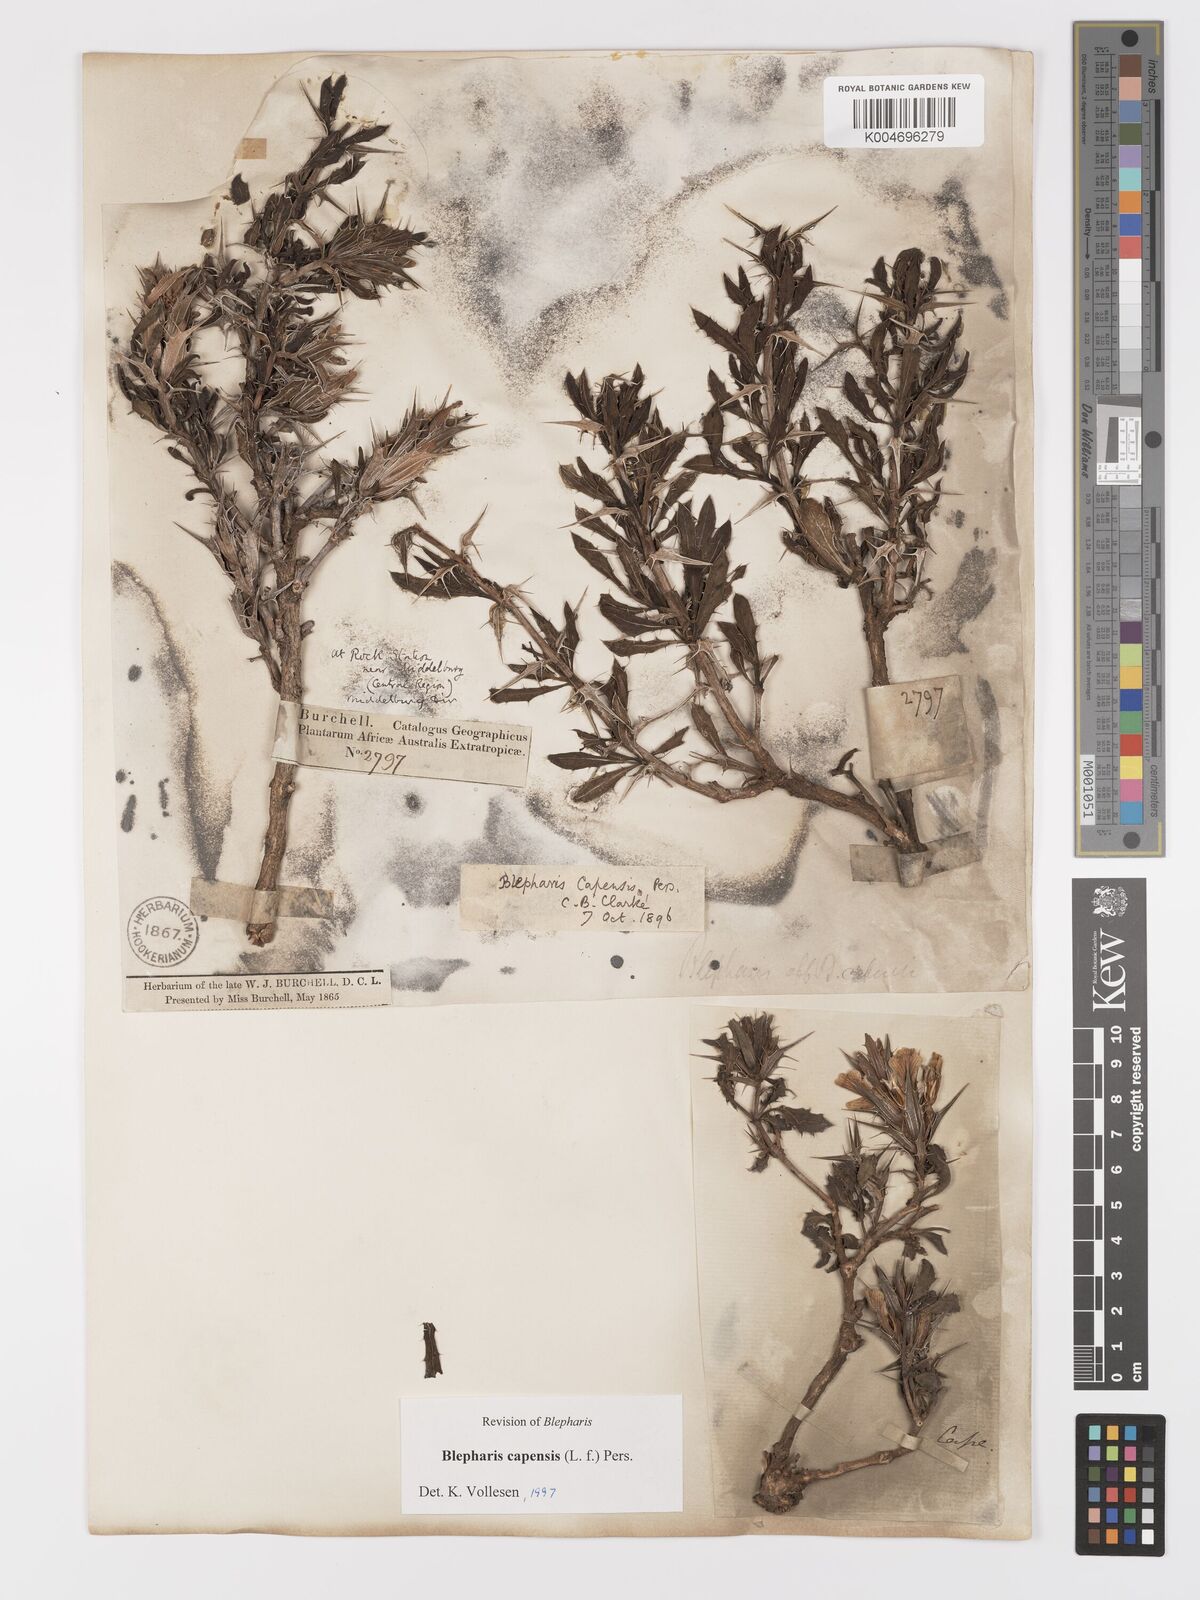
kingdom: Plantae
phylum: Tracheophyta
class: Magnoliopsida
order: Lamiales
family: Acanthaceae
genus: Blepharis
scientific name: Blepharis capensis
